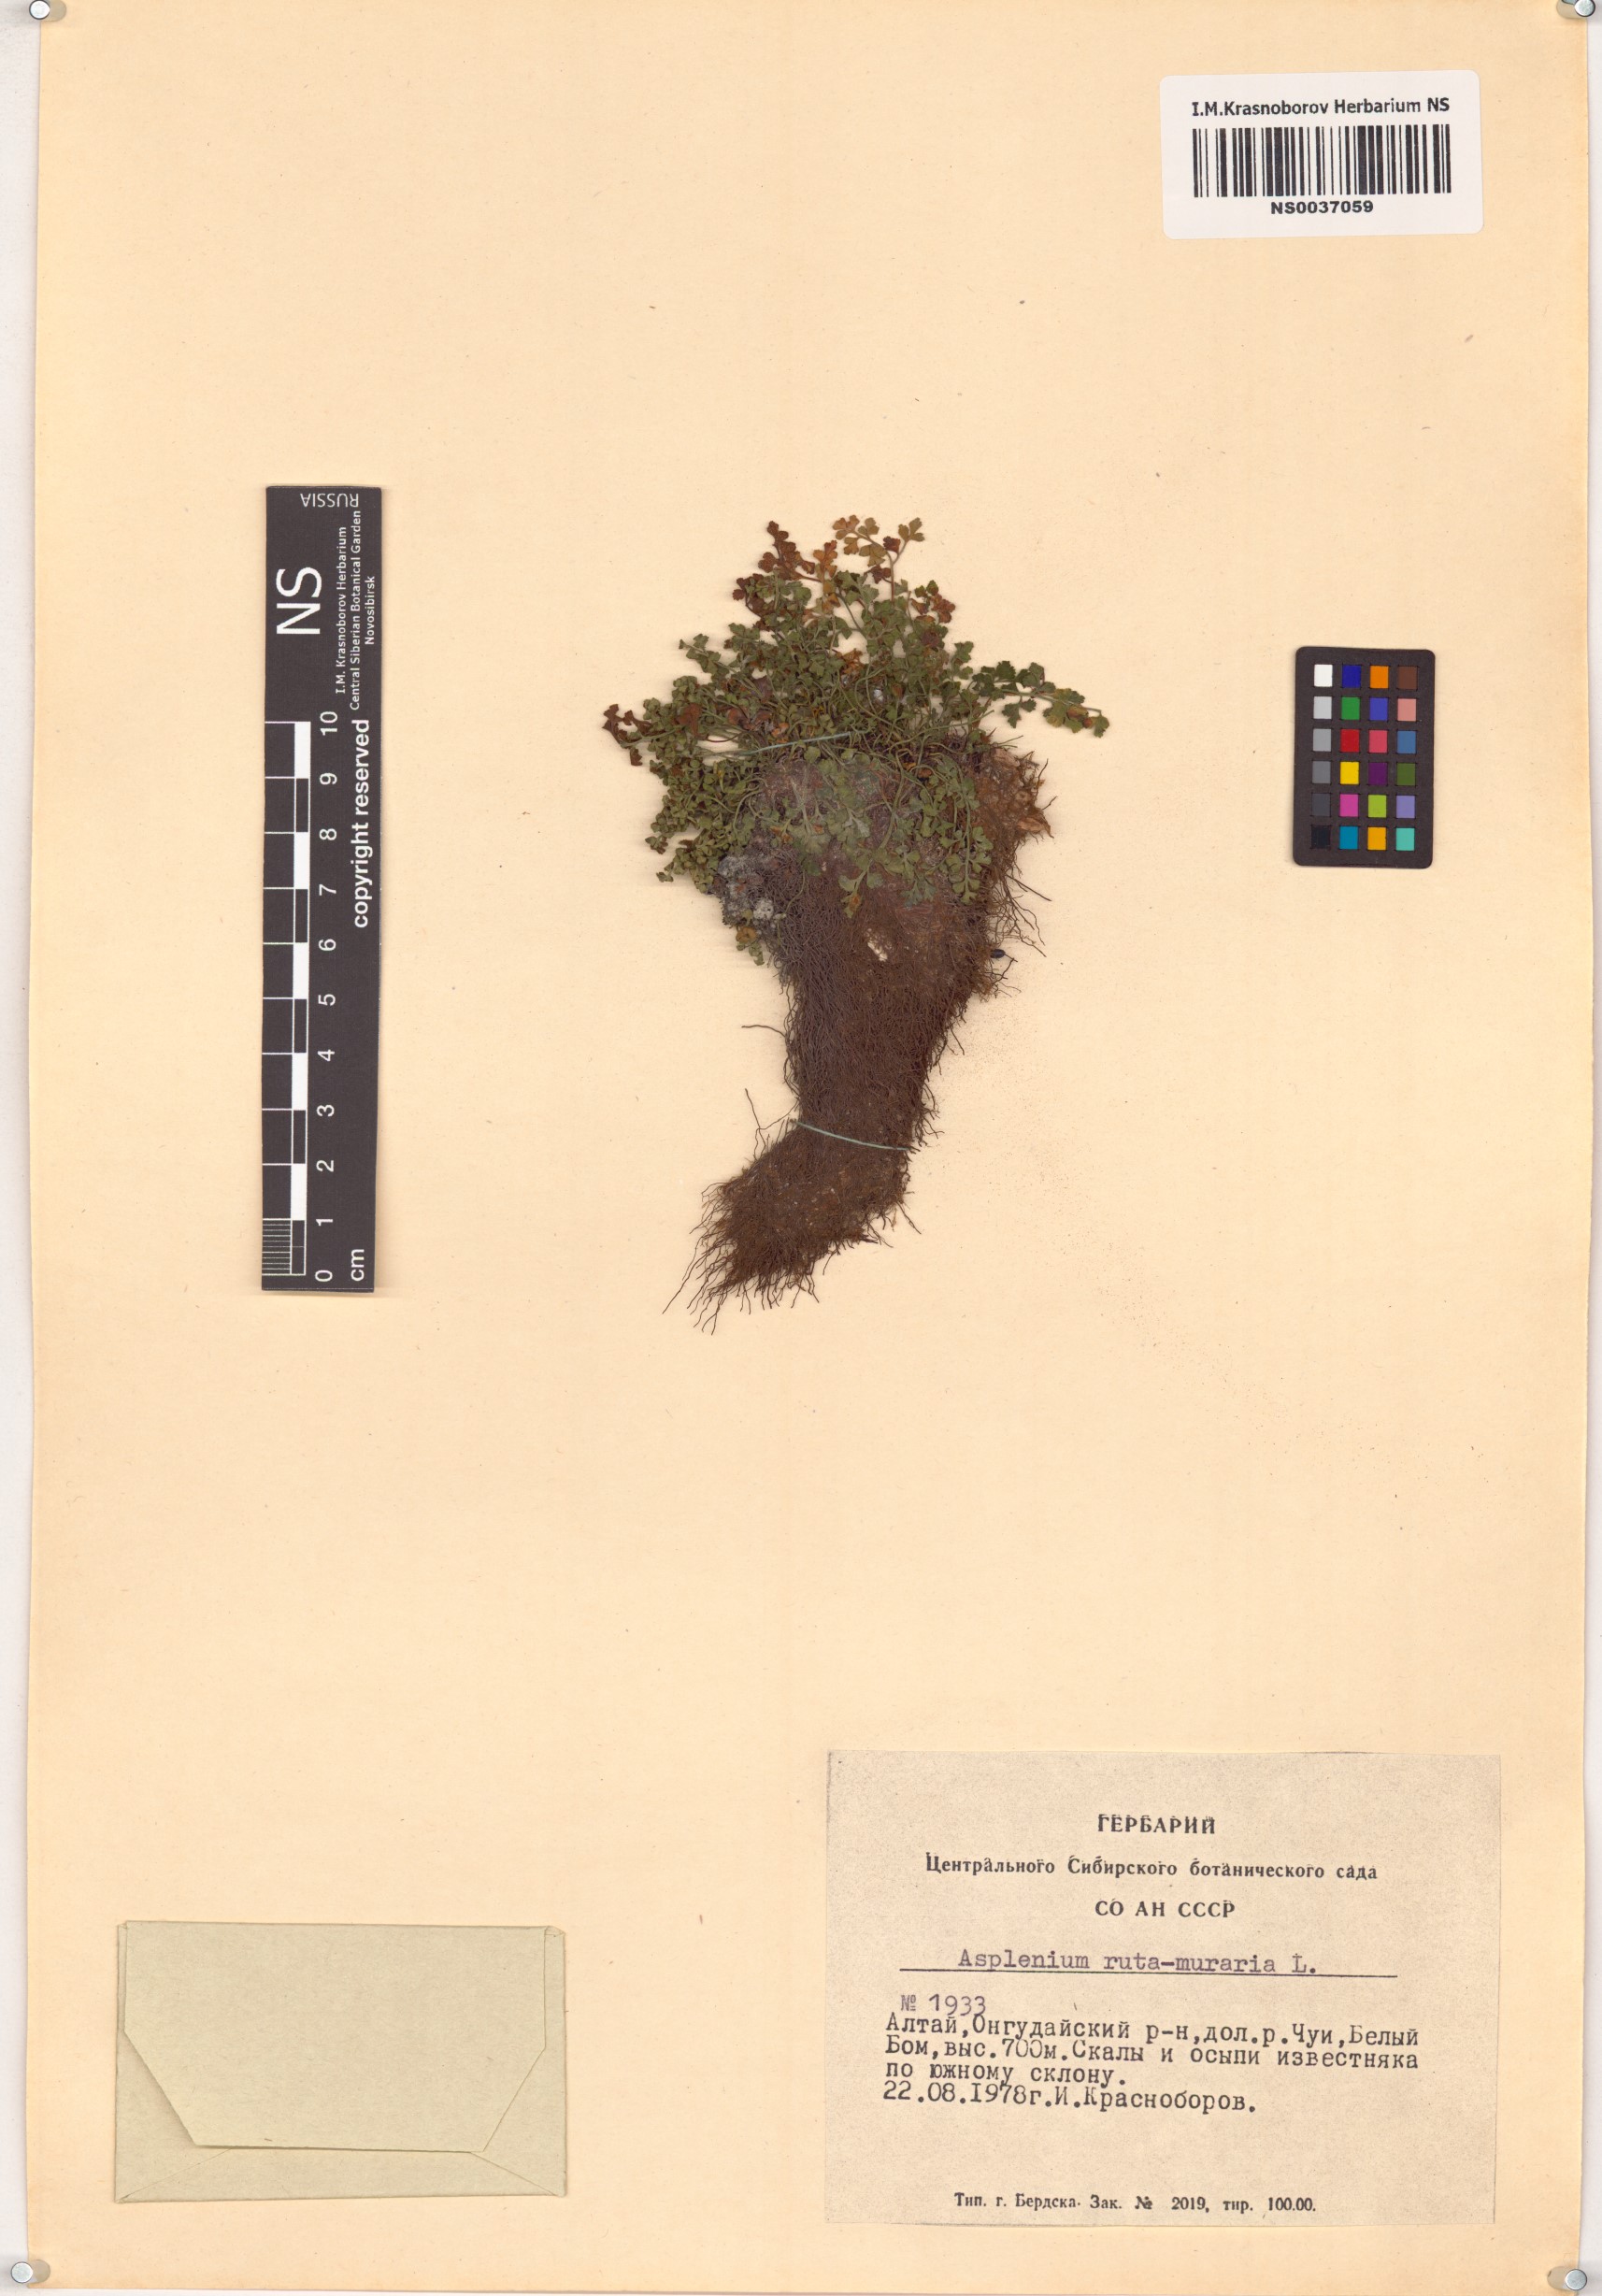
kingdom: Plantae
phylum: Tracheophyta
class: Polypodiopsida
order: Polypodiales
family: Aspleniaceae
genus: Asplenium
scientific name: Asplenium ruta-muraria
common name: Wall-rue
